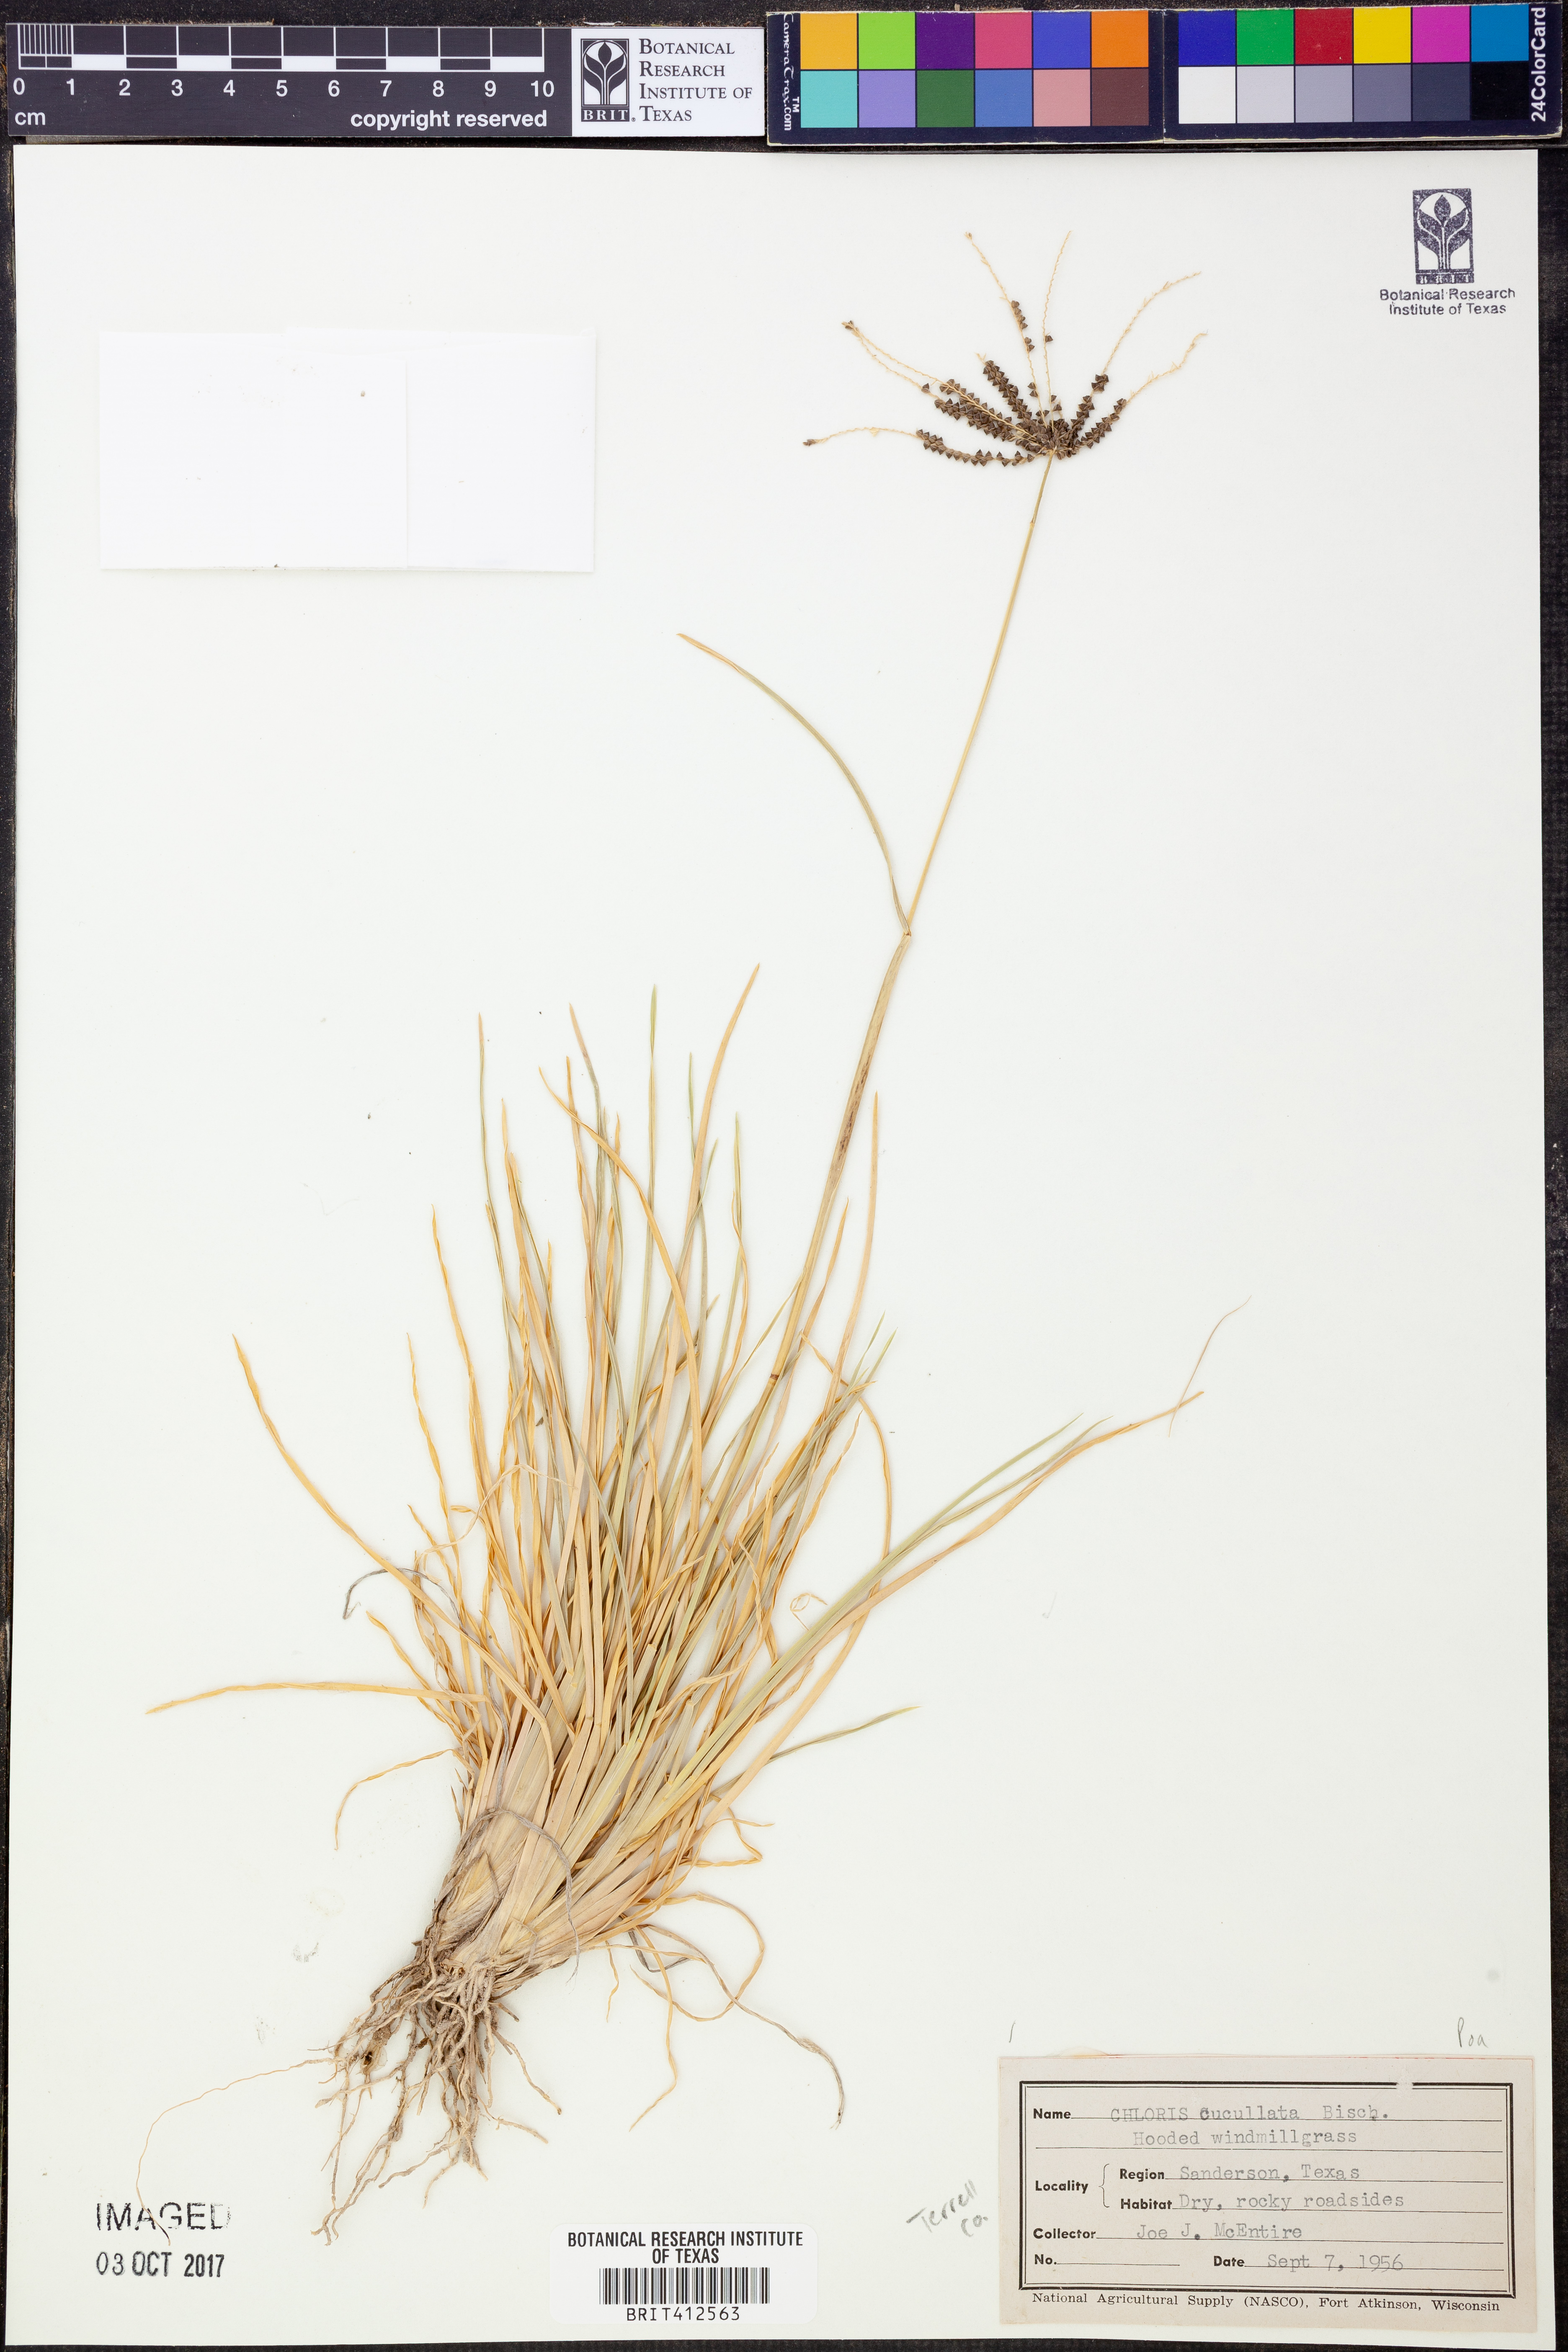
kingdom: Plantae
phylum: Tracheophyta
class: Liliopsida
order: Poales
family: Poaceae
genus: Chloris
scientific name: Chloris cucullata
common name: Hooded windmill grass
